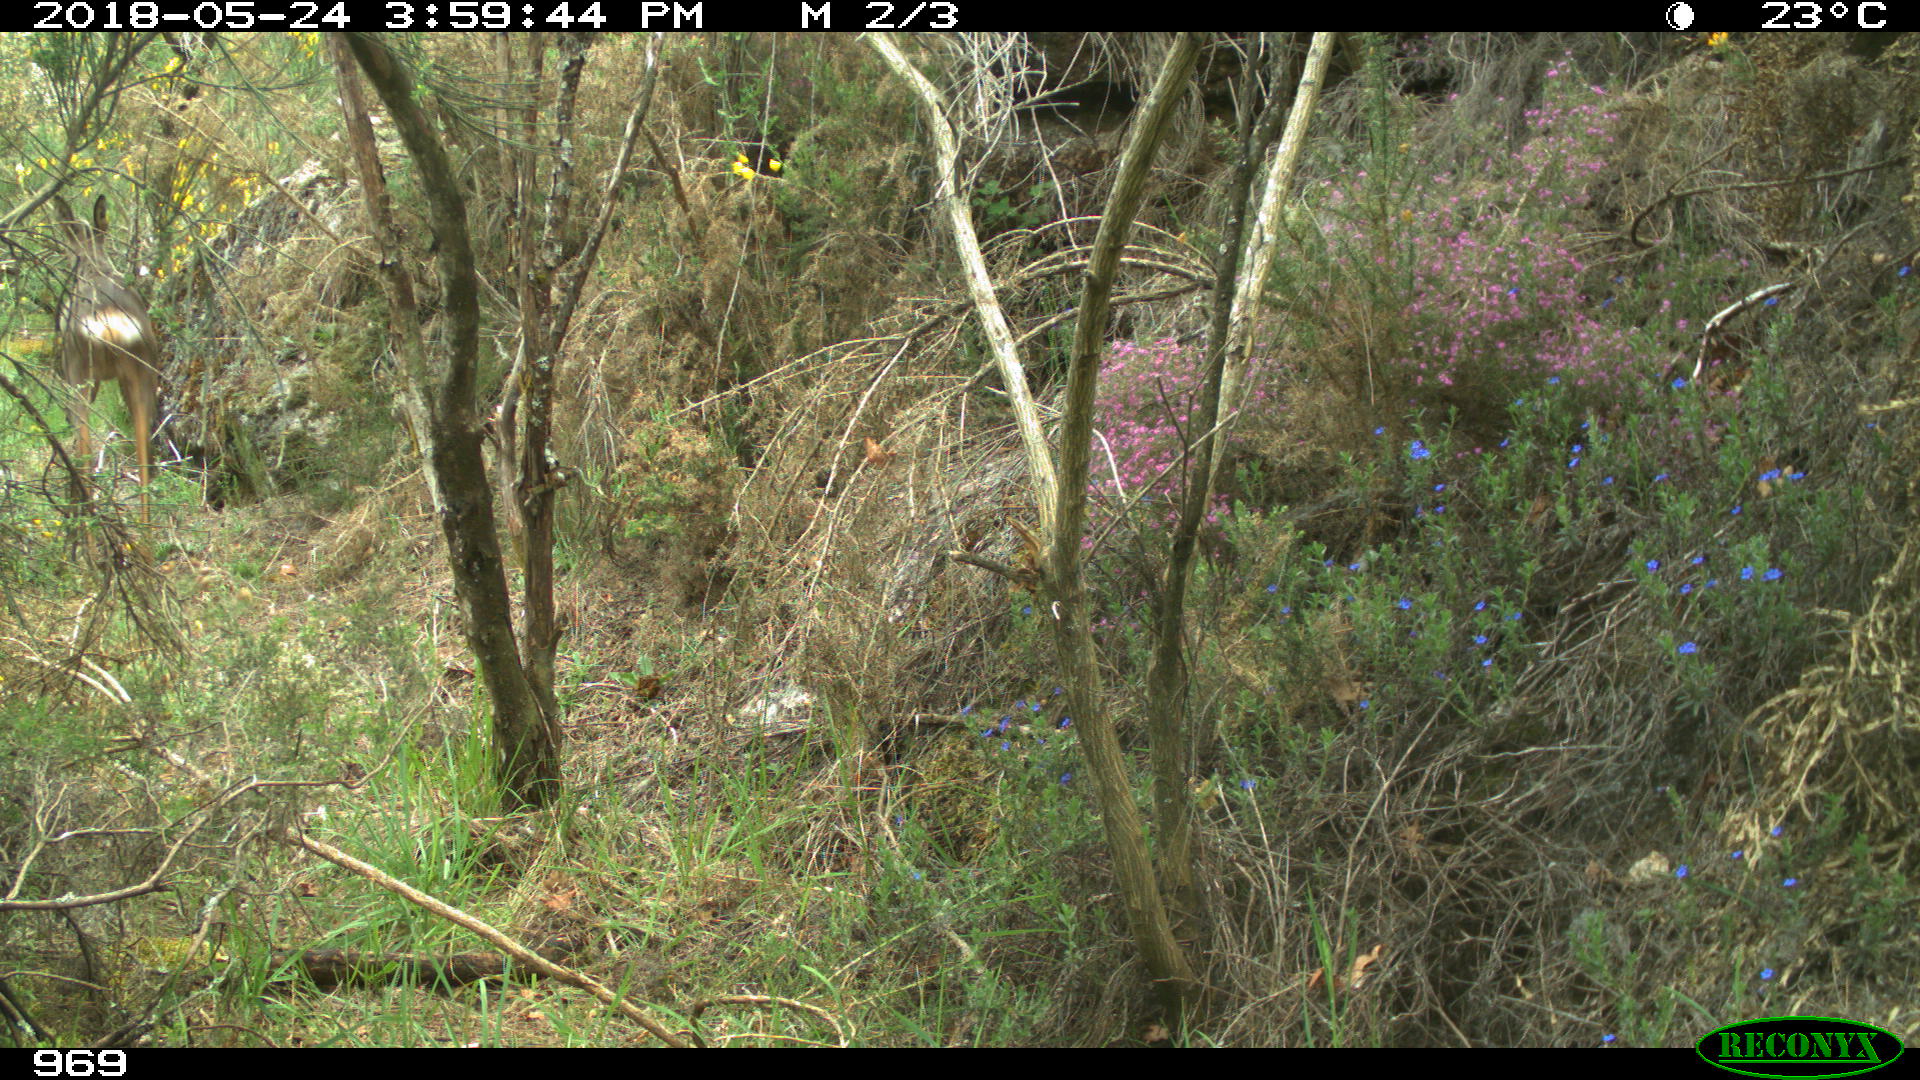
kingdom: Animalia
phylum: Chordata
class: Mammalia
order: Artiodactyla
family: Cervidae
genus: Capreolus
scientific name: Capreolus capreolus
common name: Western roe deer
